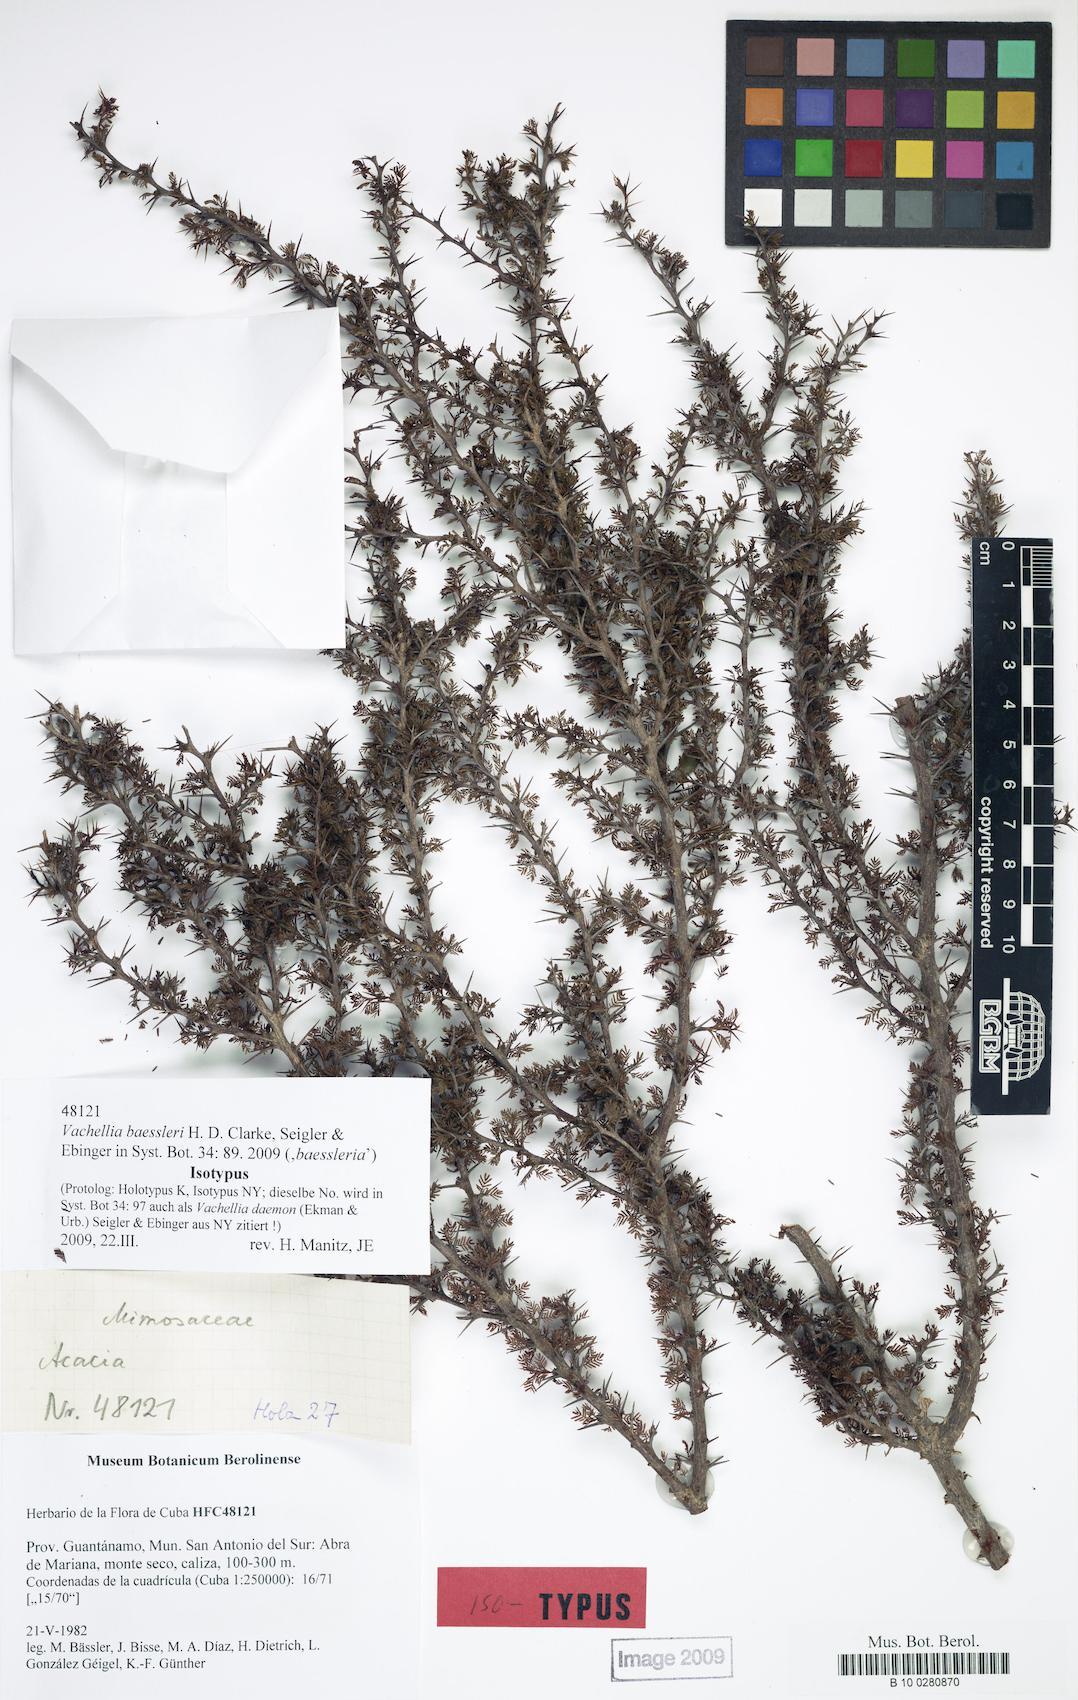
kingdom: Plantae
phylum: Tracheophyta
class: Magnoliopsida
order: Fabales
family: Fabaceae
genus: Vachellia
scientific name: Vachellia baessleri
